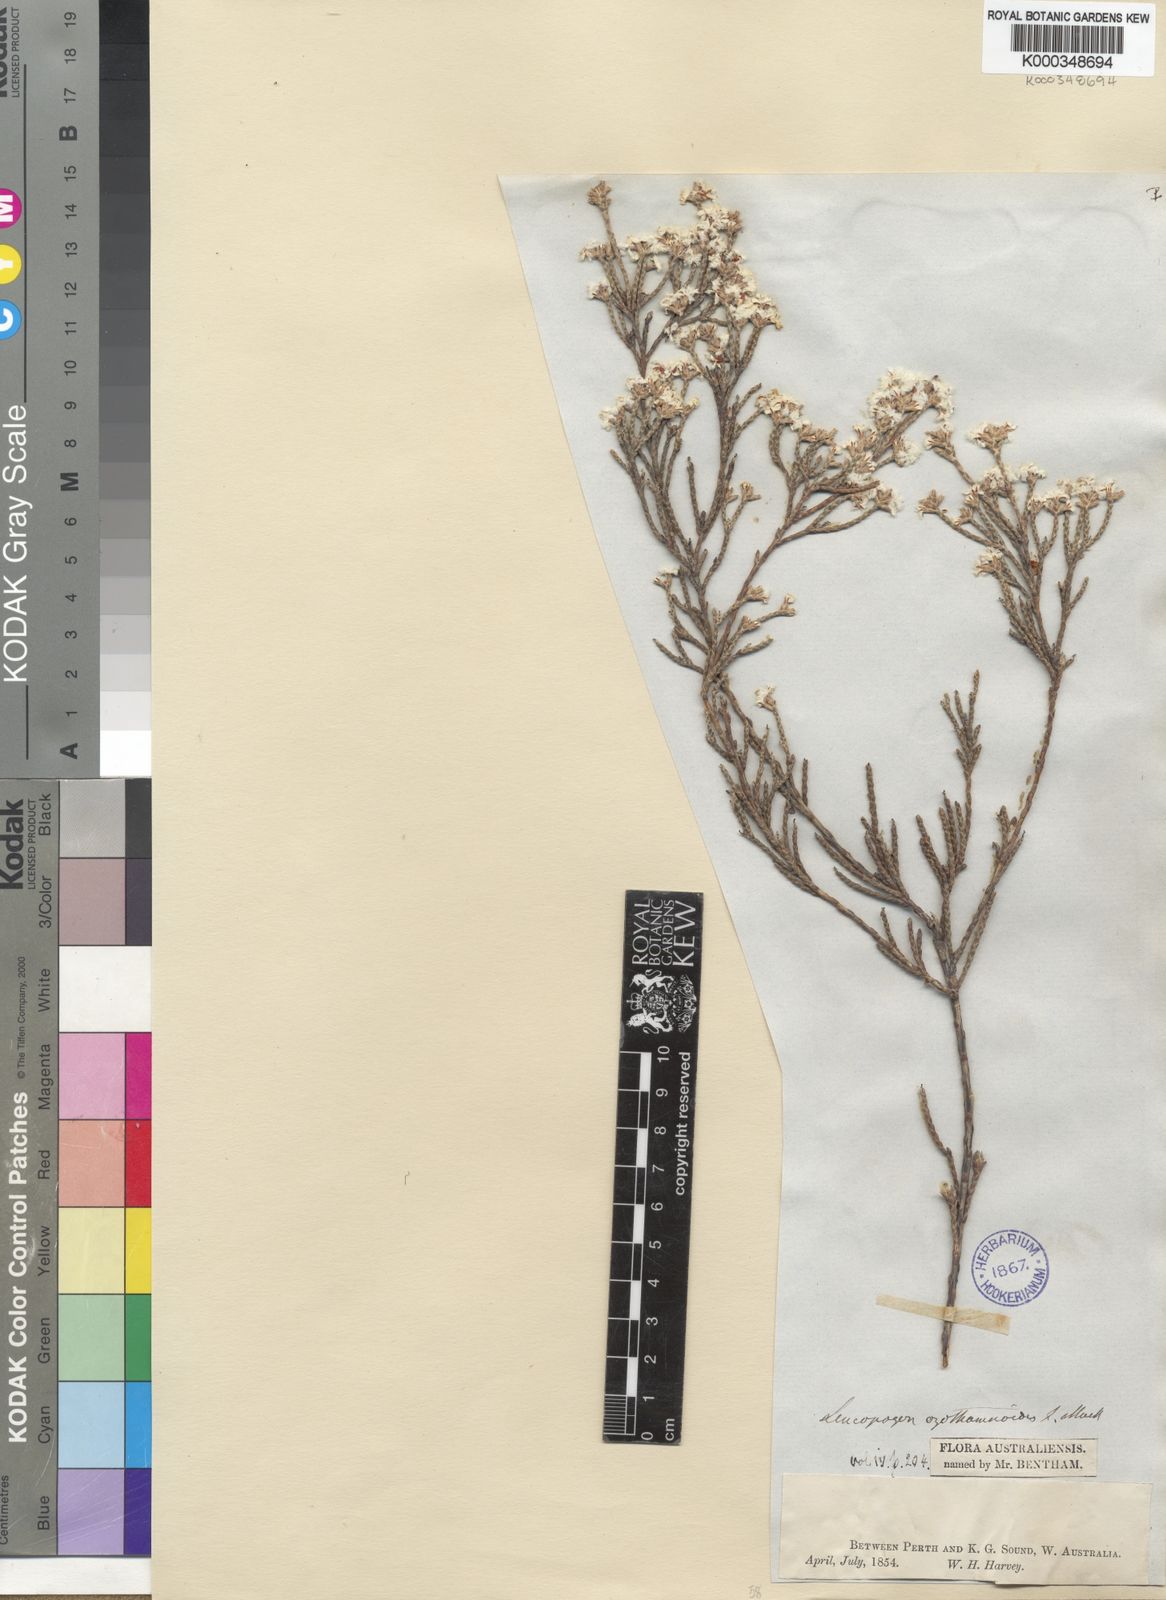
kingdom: Plantae
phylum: Tracheophyta
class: Magnoliopsida
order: Ericales
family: Ericaceae
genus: Leucopogon
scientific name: Leucopogon ozothamnoides
